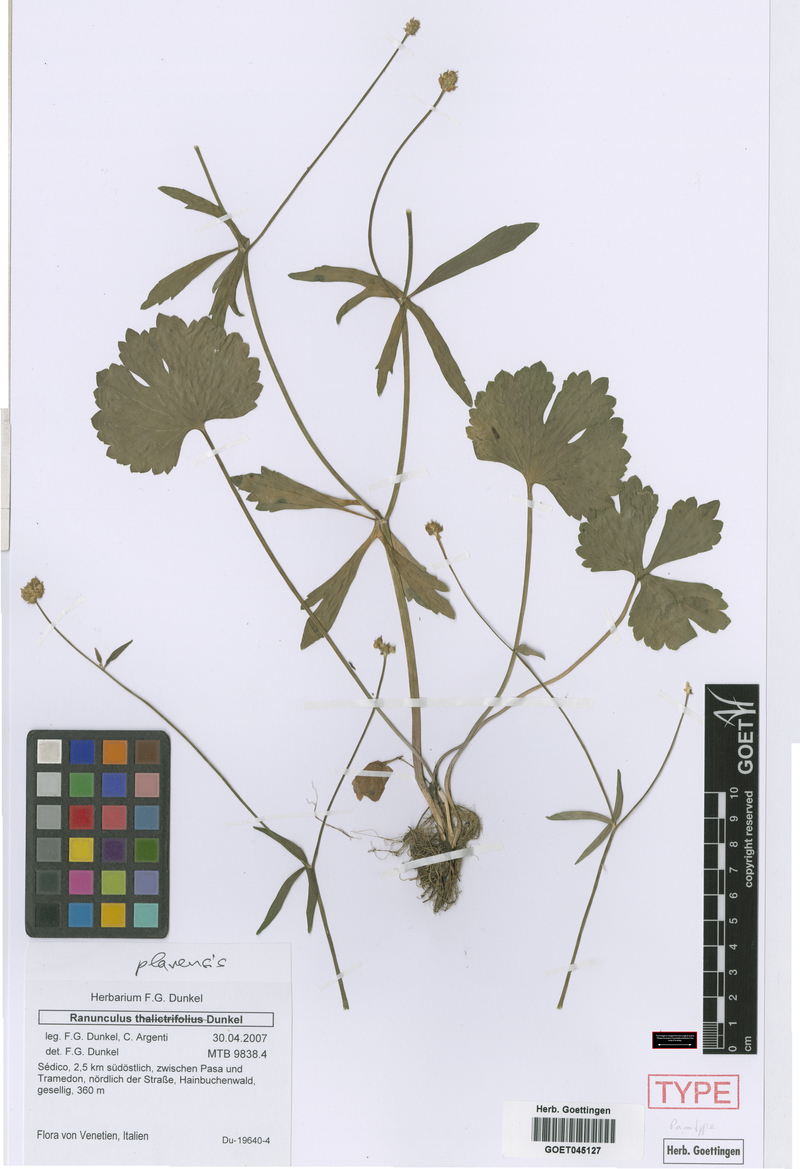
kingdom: Plantae
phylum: Tracheophyta
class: Magnoliopsida
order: Ranunculales
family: Ranunculaceae
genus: Ranunculus
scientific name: Ranunculus plavensis
